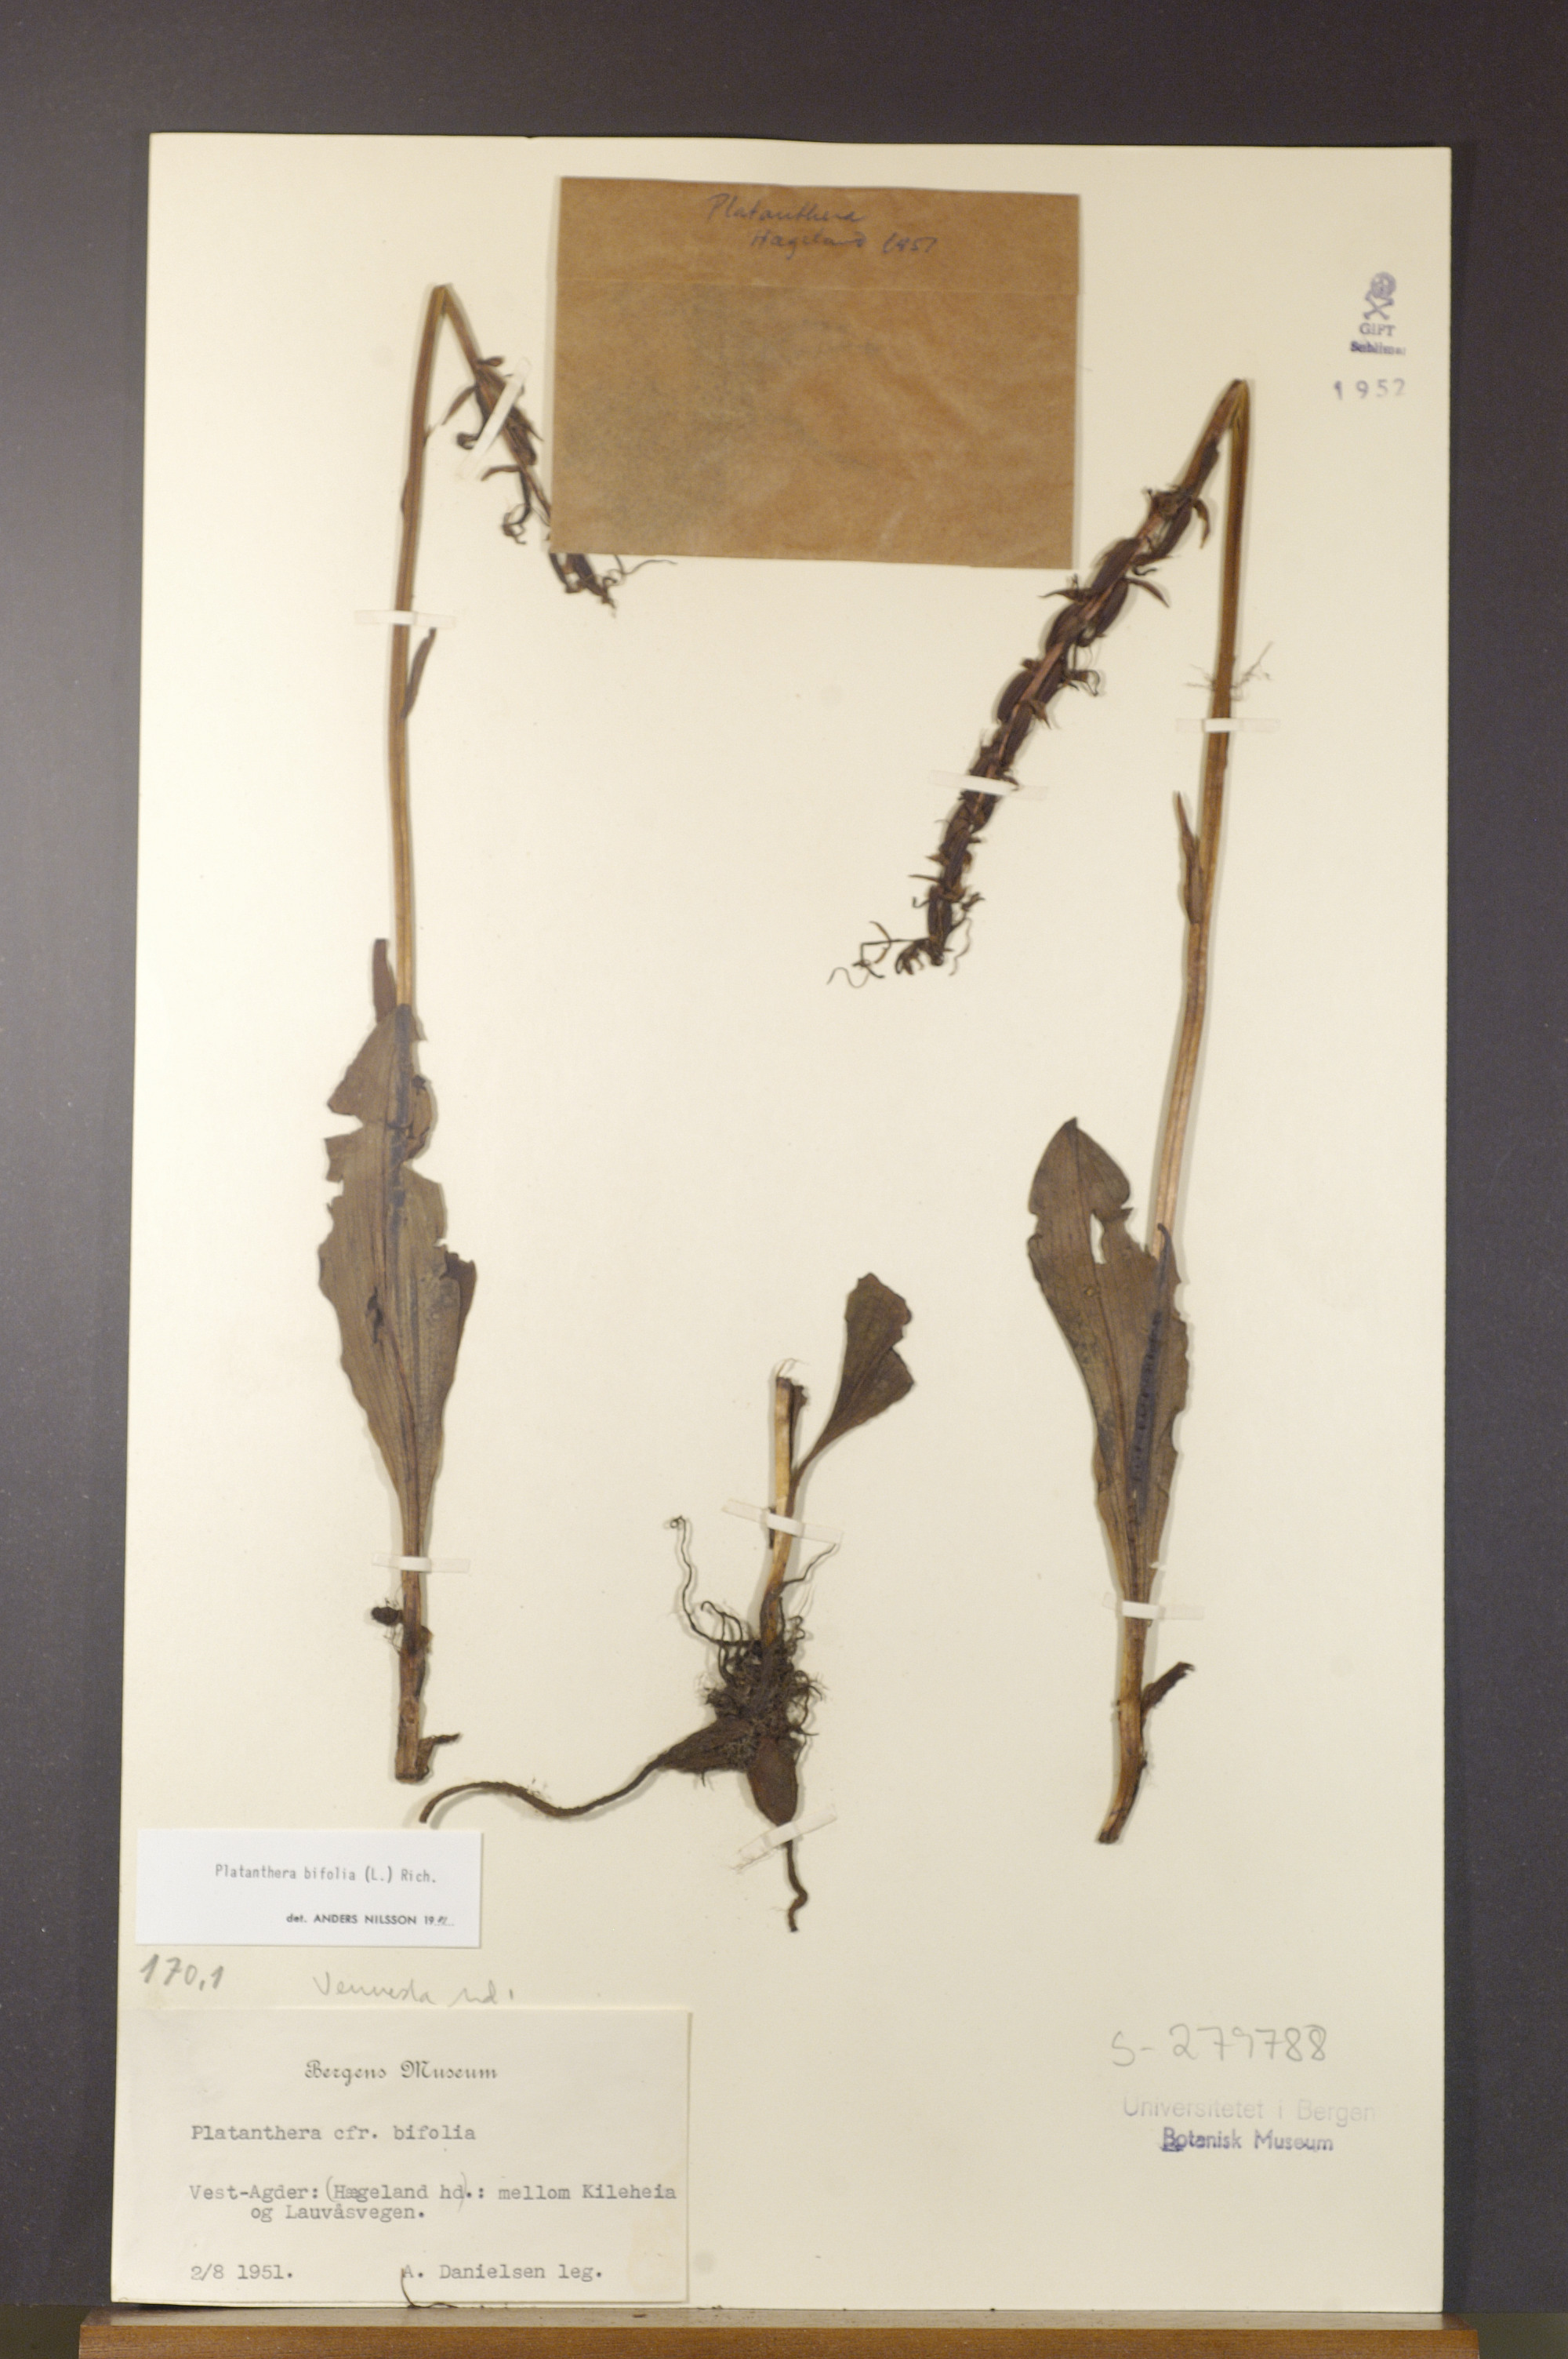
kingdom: Plantae
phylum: Tracheophyta
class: Liliopsida
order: Asparagales
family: Orchidaceae
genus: Platanthera
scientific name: Platanthera bifolia
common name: Lesser butterfly-orchid
